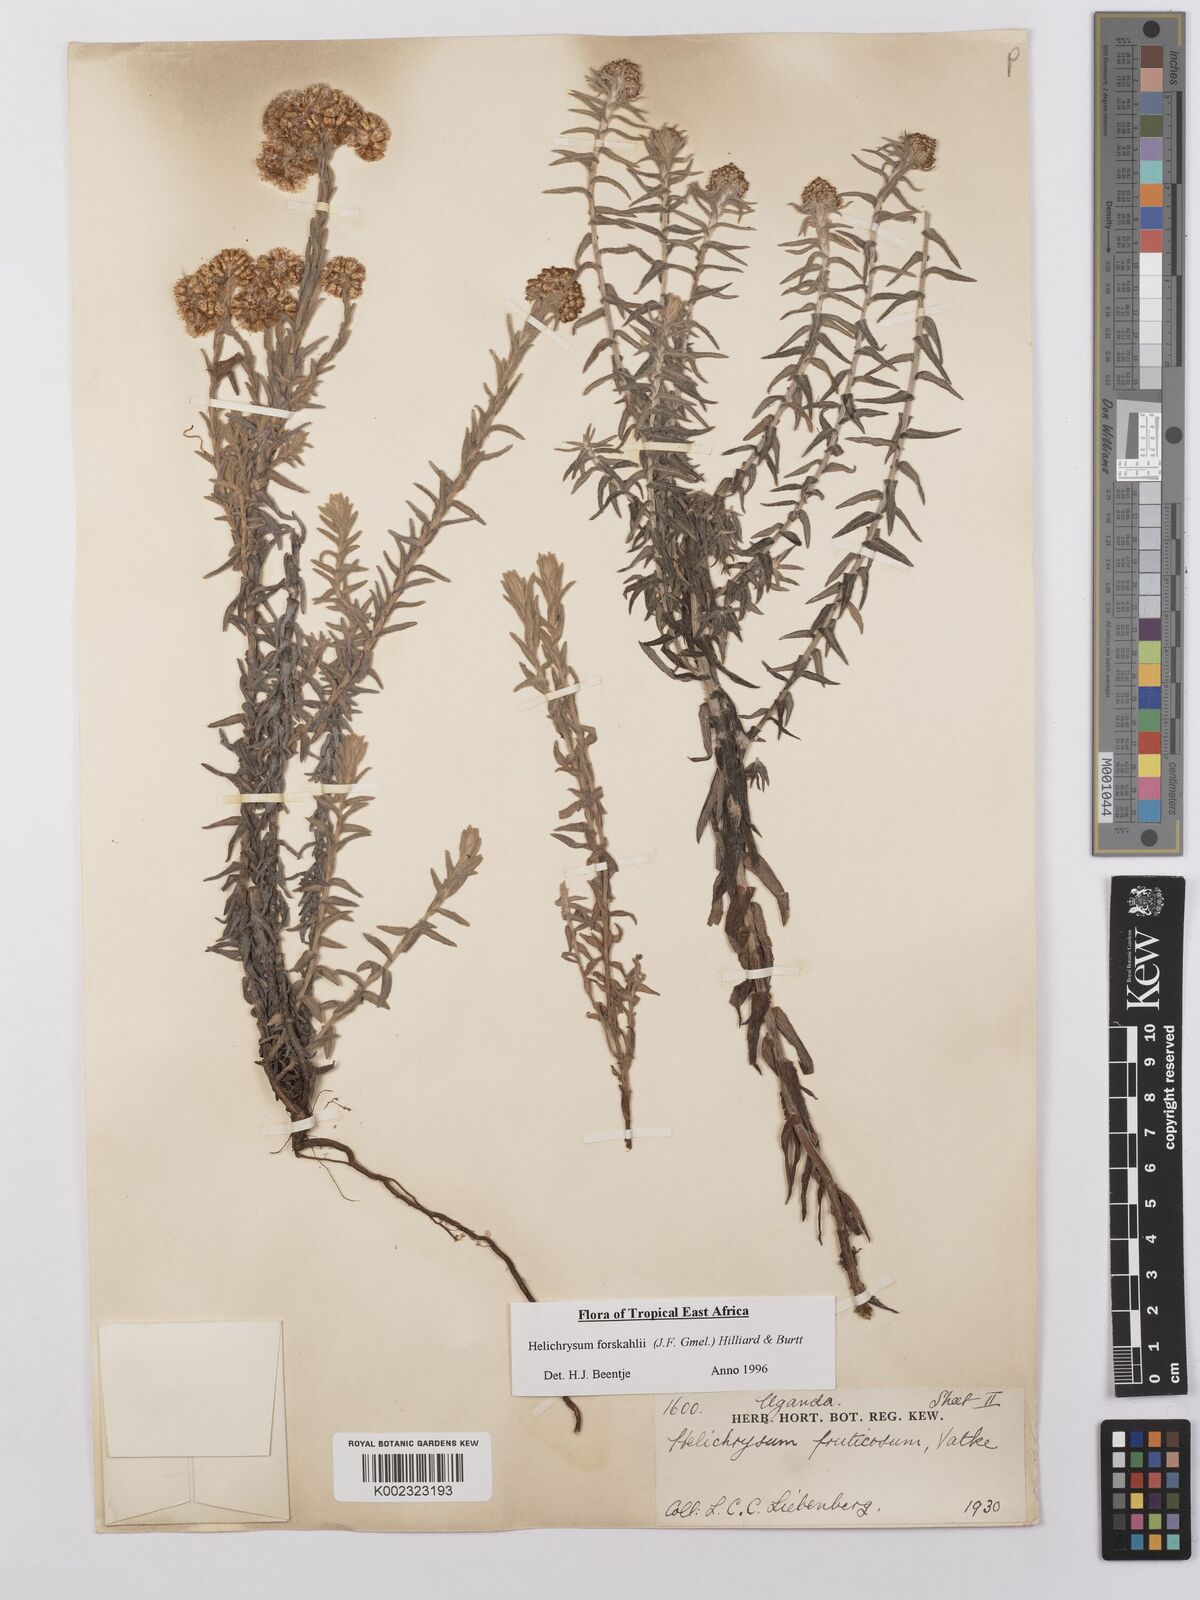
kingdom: Plantae
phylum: Tracheophyta
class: Magnoliopsida
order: Asterales
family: Asteraceae
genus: Helichrysum
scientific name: Helichrysum forskahlii
